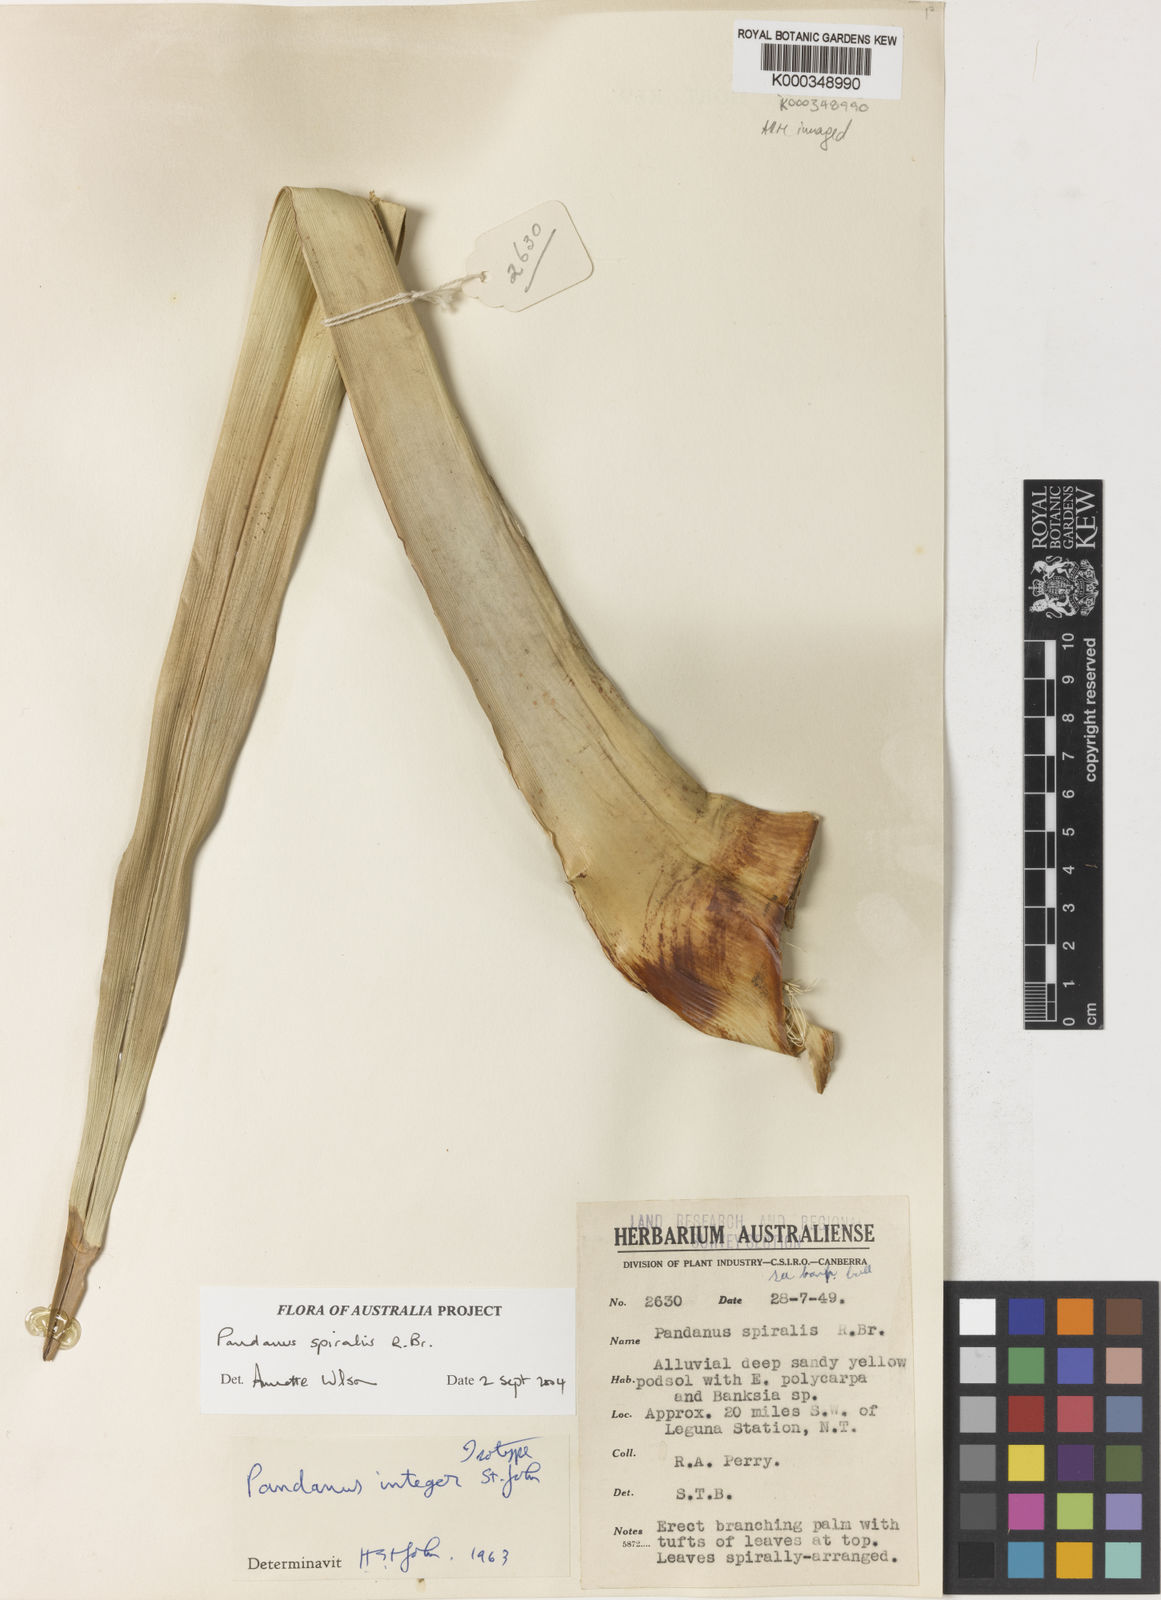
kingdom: Plantae
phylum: Tracheophyta
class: Liliopsida
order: Pandanales
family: Pandanaceae
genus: Pandanus
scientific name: Pandanus spiralis
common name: Screw-pine
